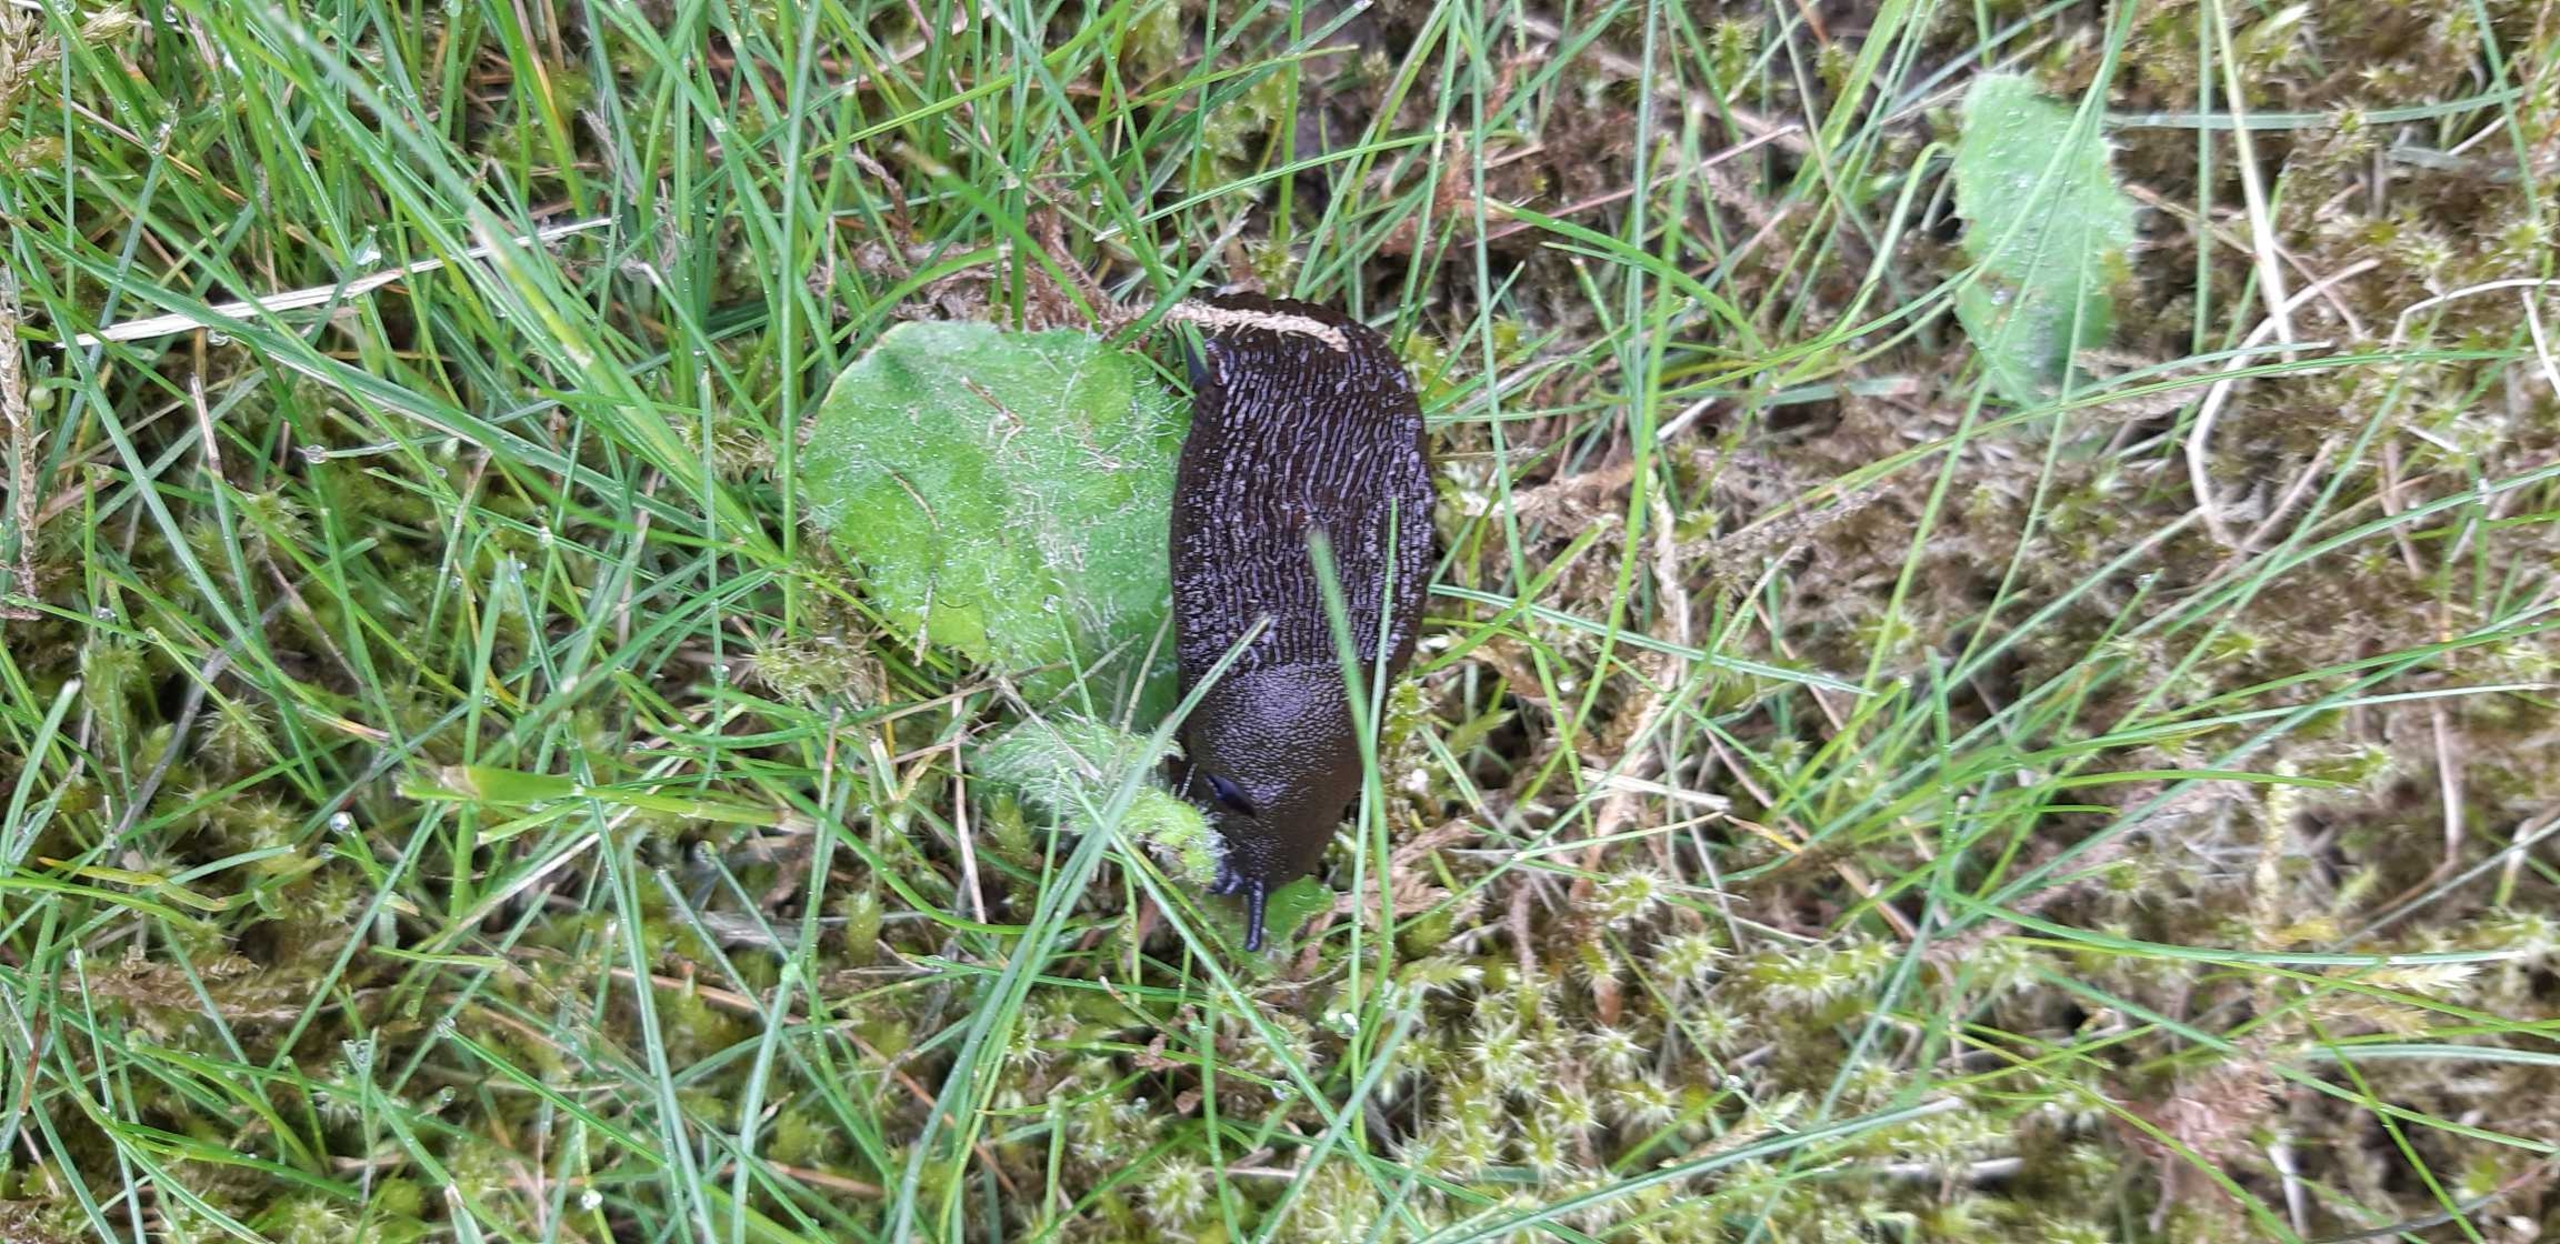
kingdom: Animalia
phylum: Mollusca
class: Gastropoda
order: Stylommatophora
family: Arionidae
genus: Arion
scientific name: Arion ater
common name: Sort skovsnegl
